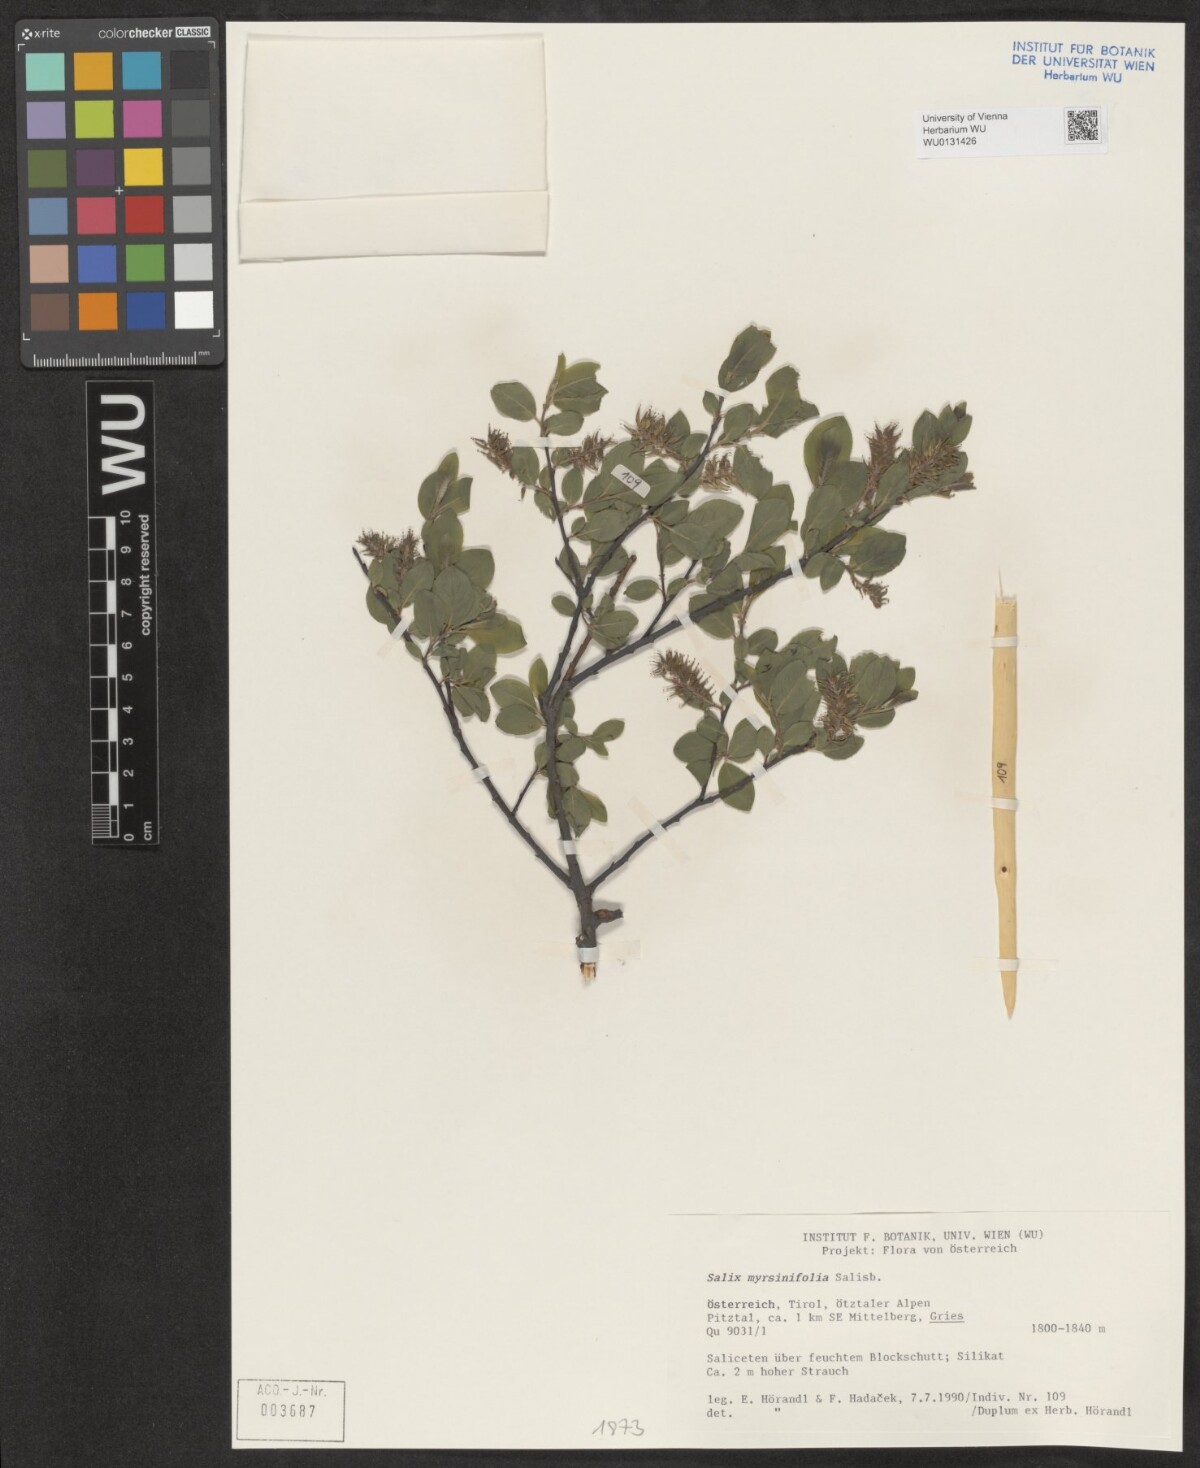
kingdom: Plantae
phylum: Tracheophyta
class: Magnoliopsida
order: Malpighiales
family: Salicaceae
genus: Salix
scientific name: Salix myrsinifolia
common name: Dark-leaved willow
